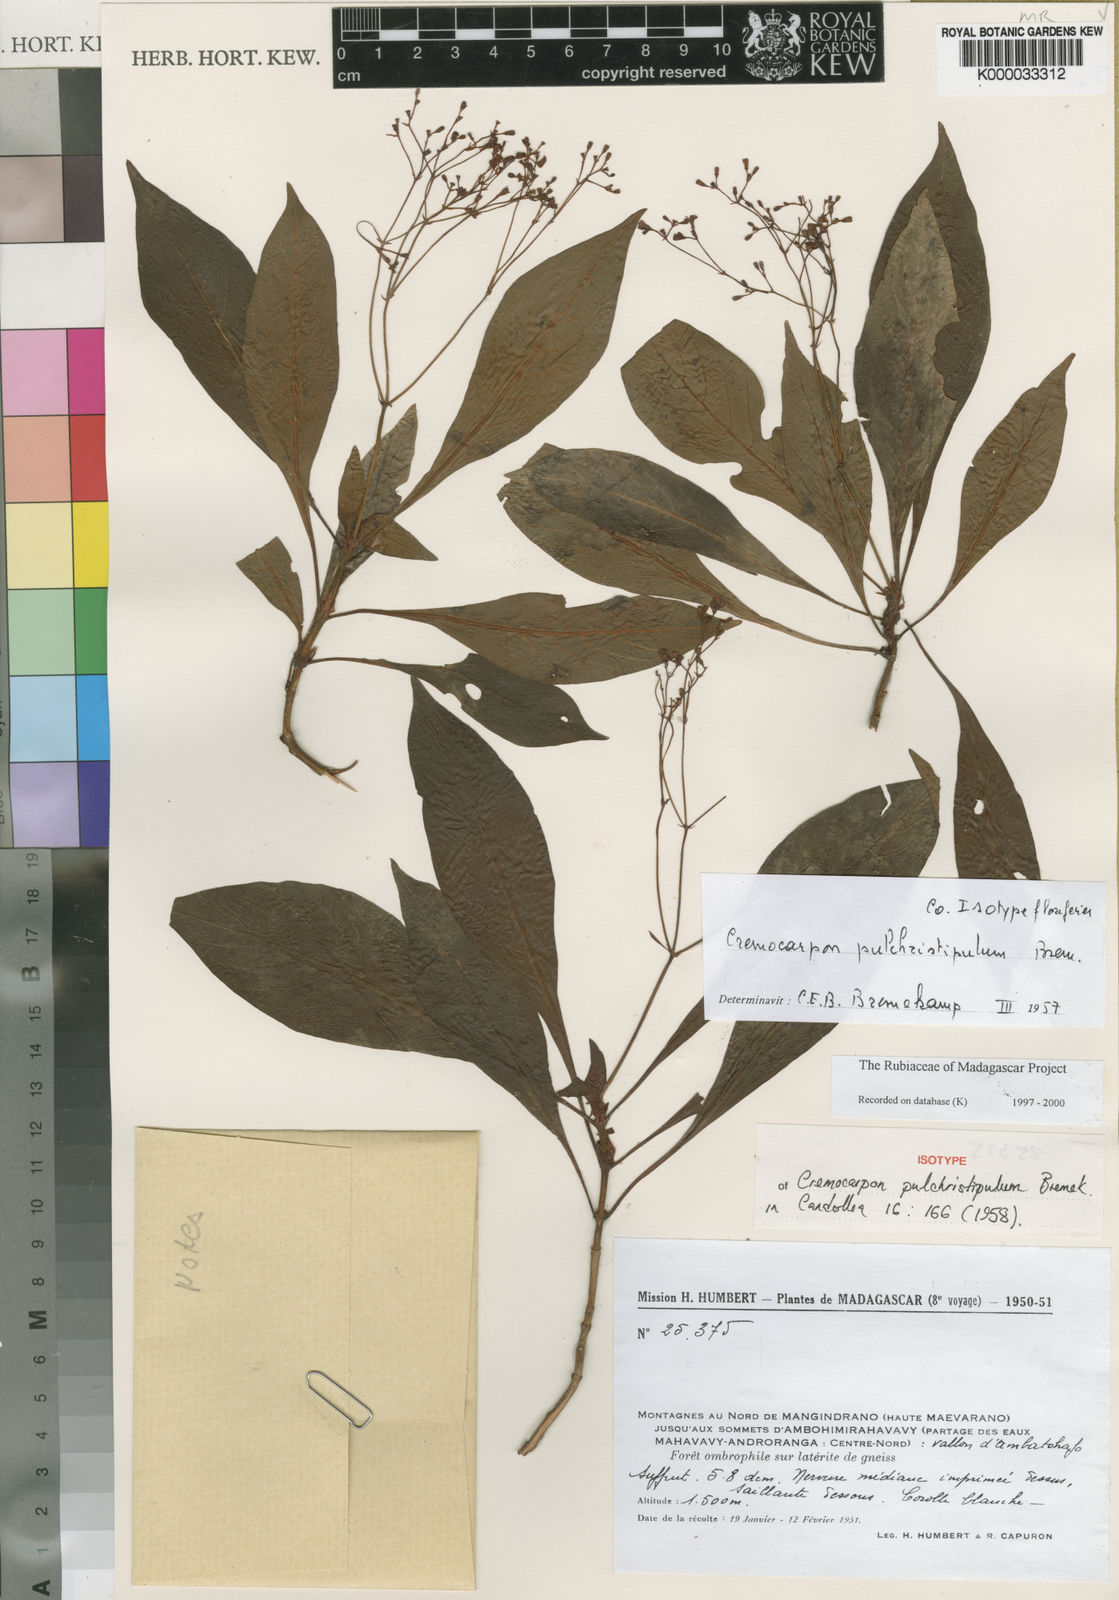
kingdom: Plantae
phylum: Tracheophyta
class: Magnoliopsida
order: Gentianales
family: Rubiaceae
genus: Psychotria
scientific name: Psychotria pulchristipula
